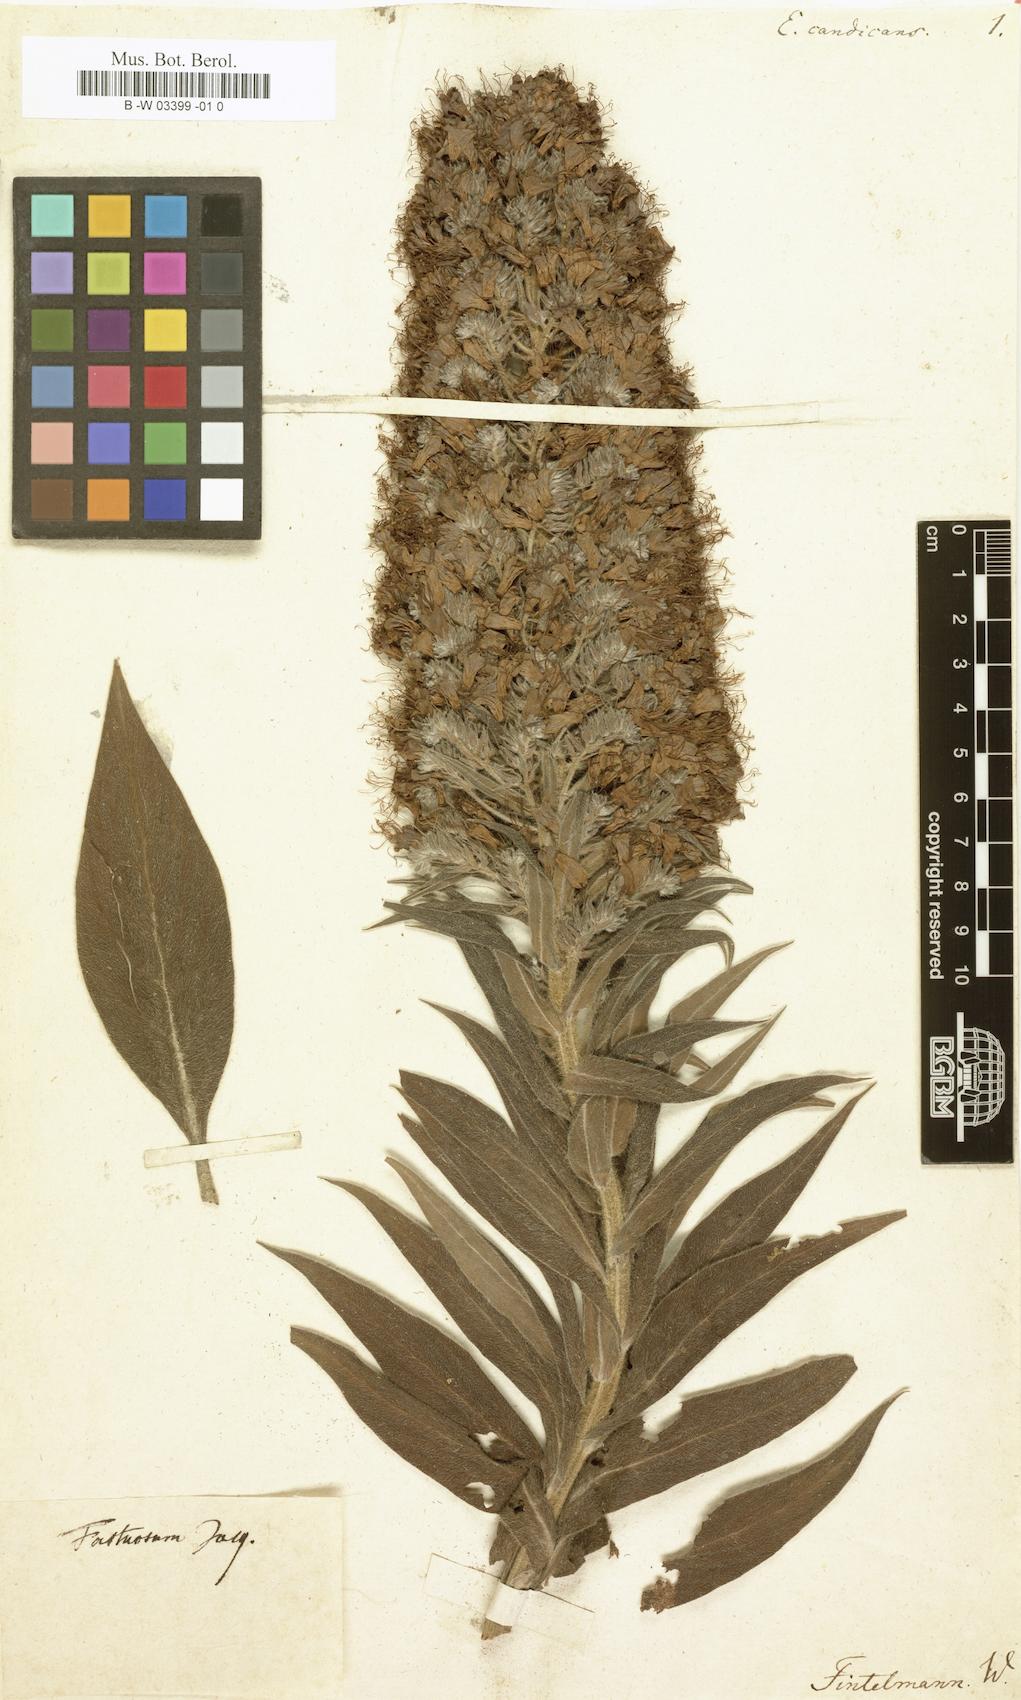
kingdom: Plantae
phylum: Tracheophyta
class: Magnoliopsida
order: Boraginales
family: Boraginaceae
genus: Echium
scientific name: Echium candicans
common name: Pride of madeira
